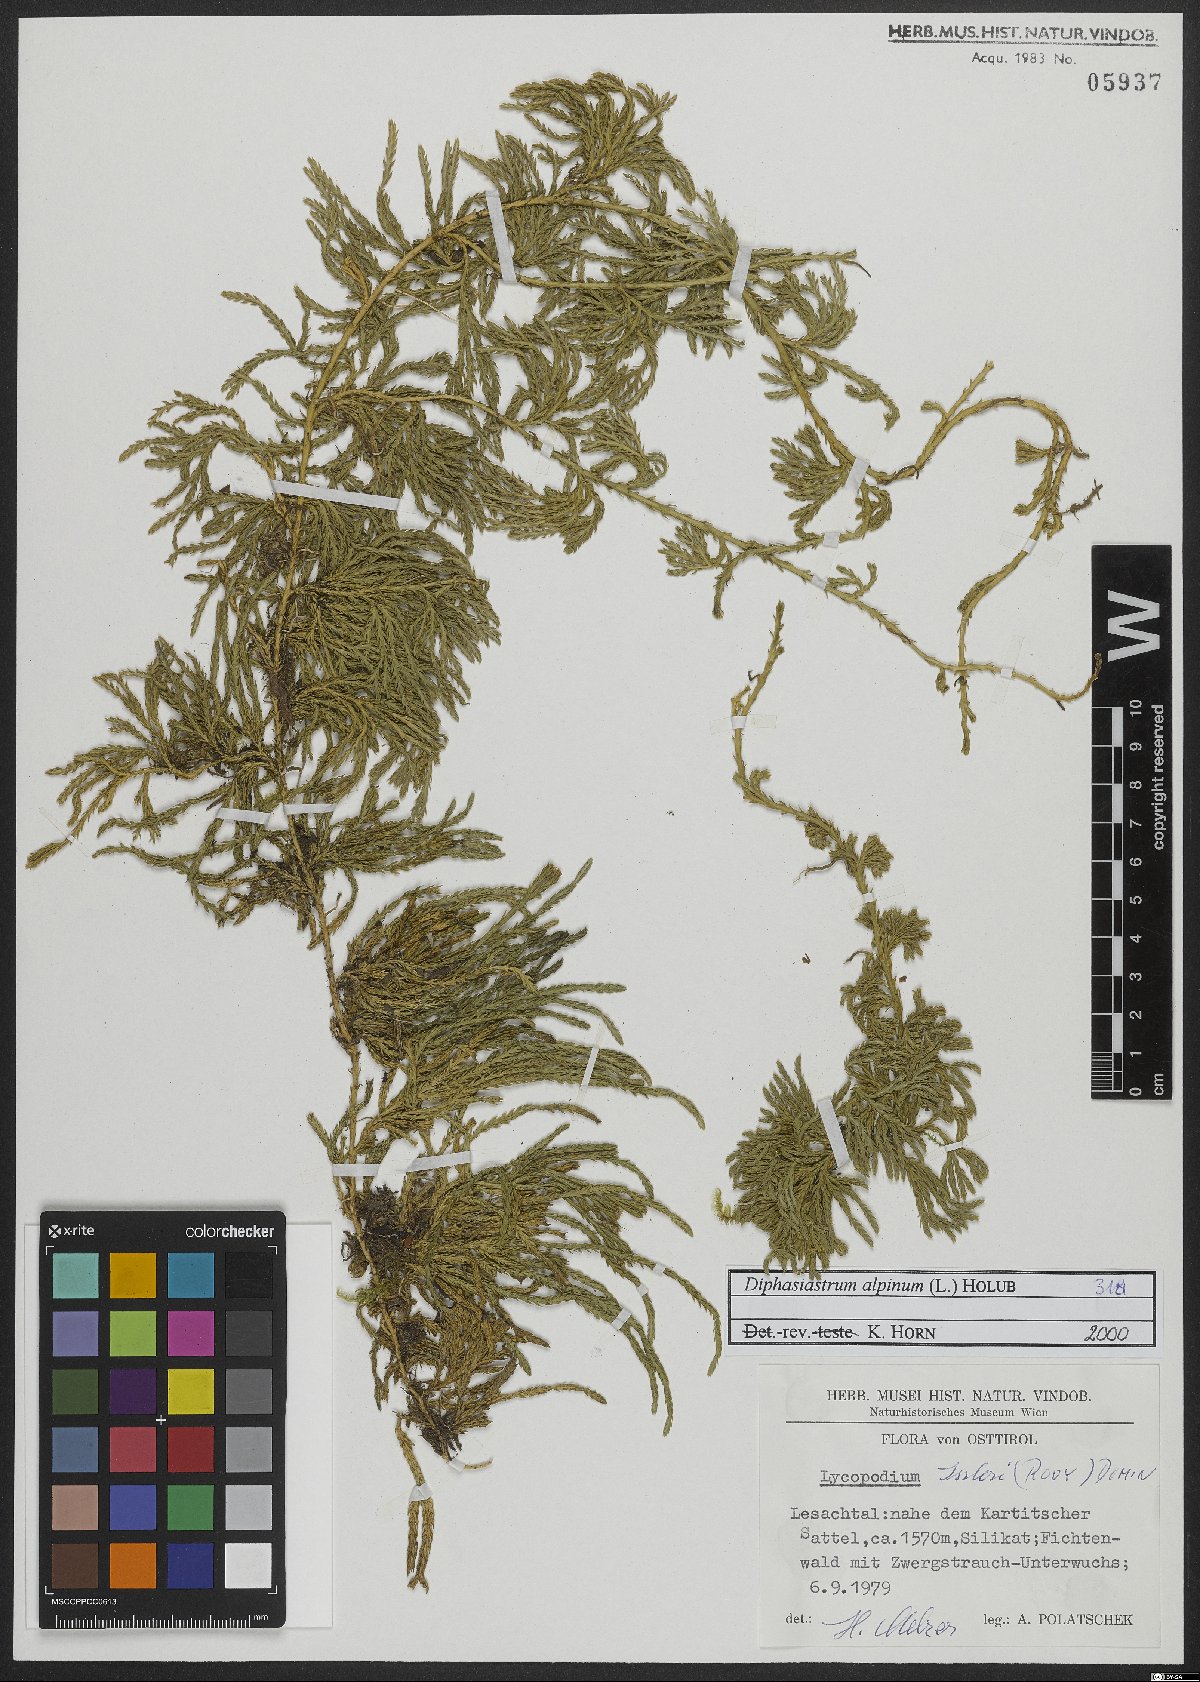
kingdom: Plantae
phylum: Tracheophyta
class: Lycopodiopsida
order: Lycopodiales
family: Lycopodiaceae
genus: Diphasiastrum
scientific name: Diphasiastrum alpinum
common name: Alpine clubmoss
